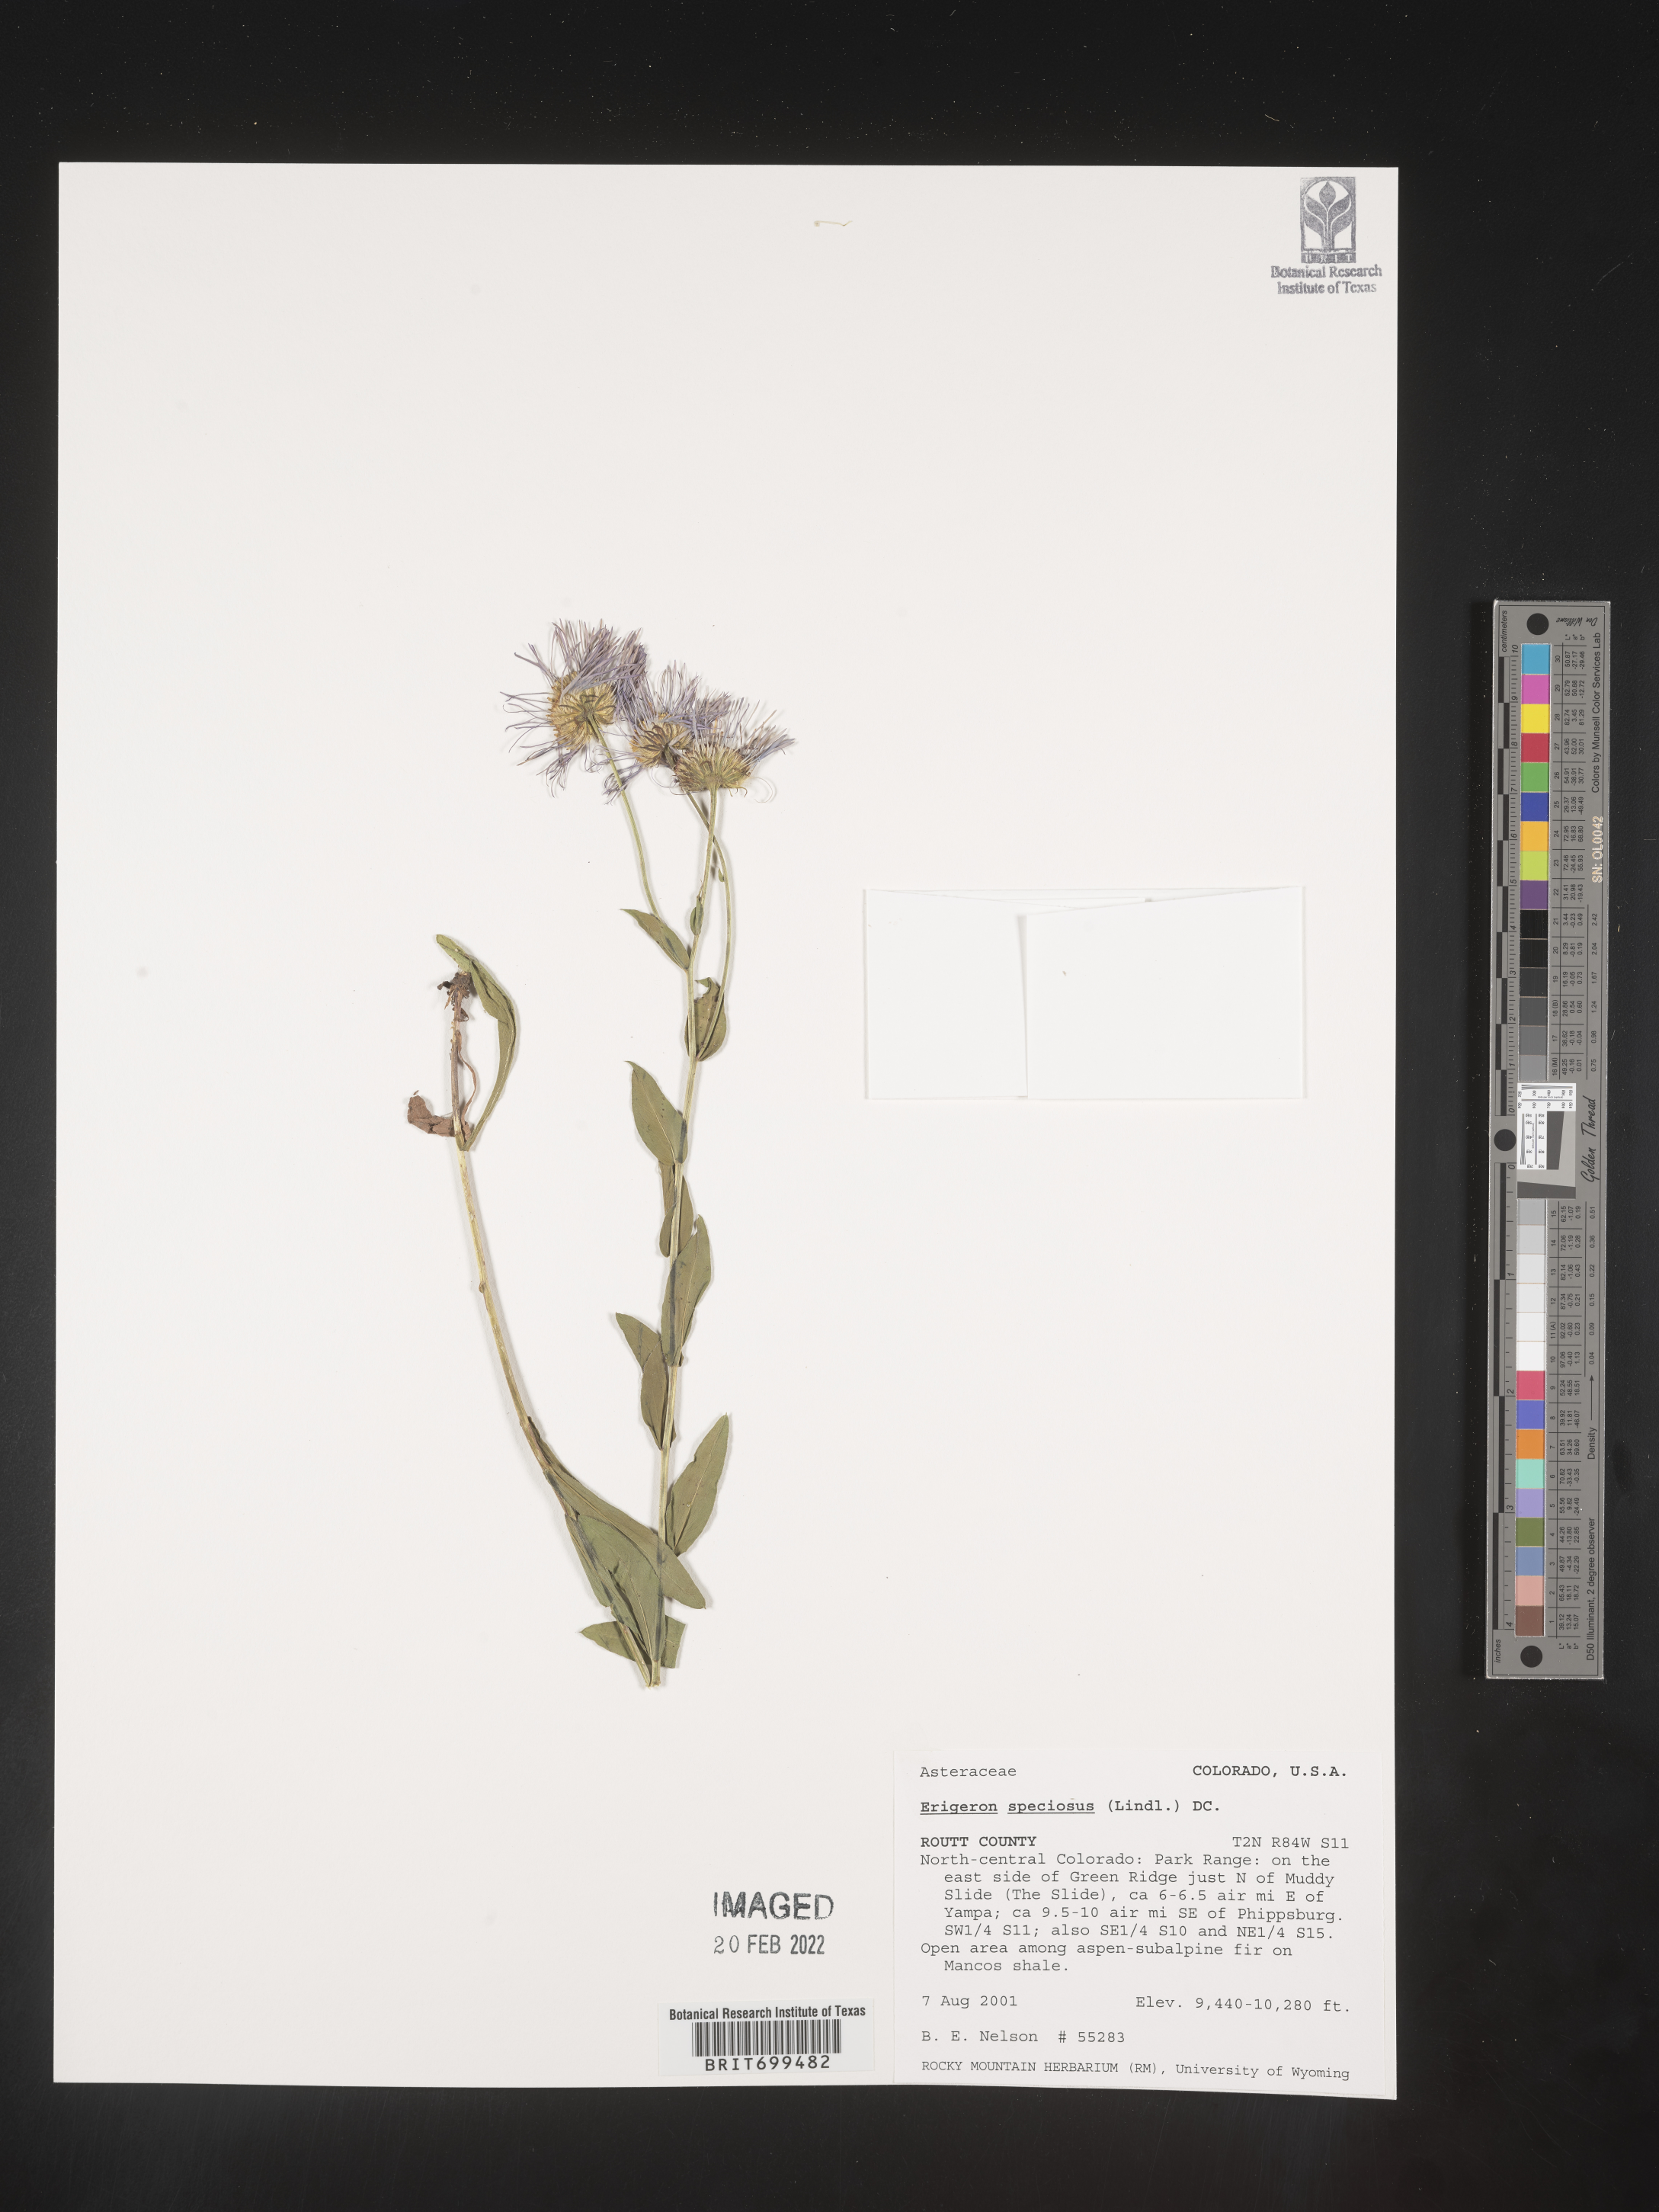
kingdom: Plantae
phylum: Tracheophyta
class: Magnoliopsida
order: Asterales
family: Asteraceae
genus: Erigeron
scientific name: Erigeron speciosus
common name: Aspen fleabane
